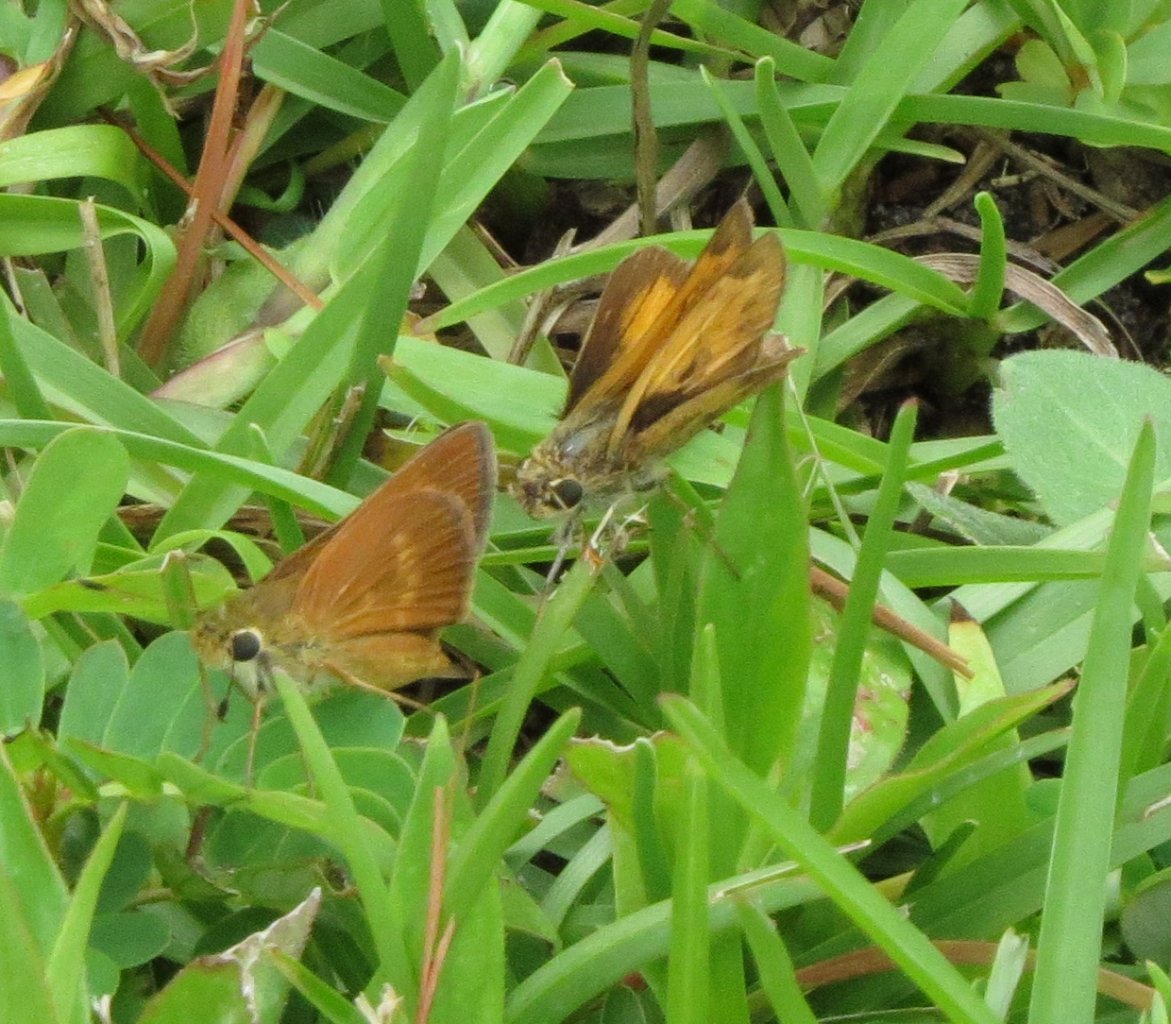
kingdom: Animalia
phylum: Arthropoda
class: Insecta
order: Lepidoptera
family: Hesperiidae
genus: Wallengrenia
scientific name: Wallengrenia otho
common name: Southern Broken-Dash
